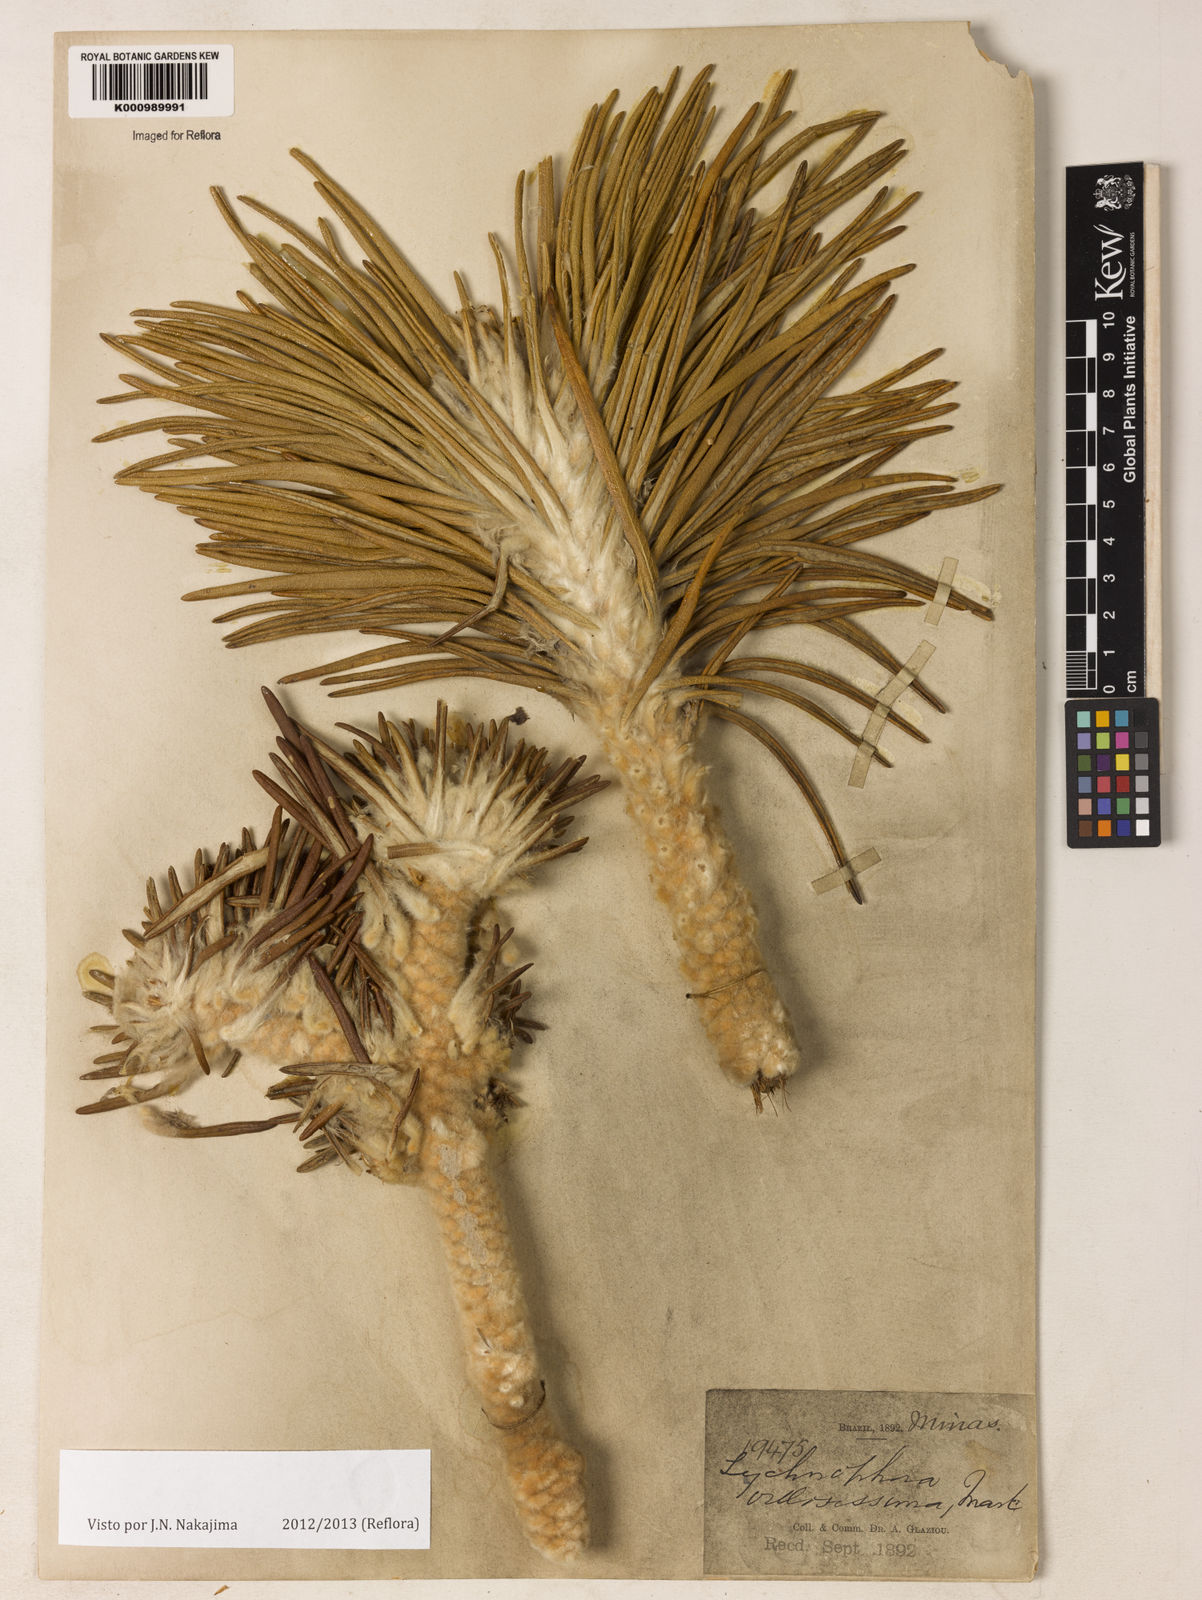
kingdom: Plantae
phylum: Tracheophyta
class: Magnoliopsida
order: Asterales
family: Asteraceae
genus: Lychnophora
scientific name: Lychnophora villosissima
